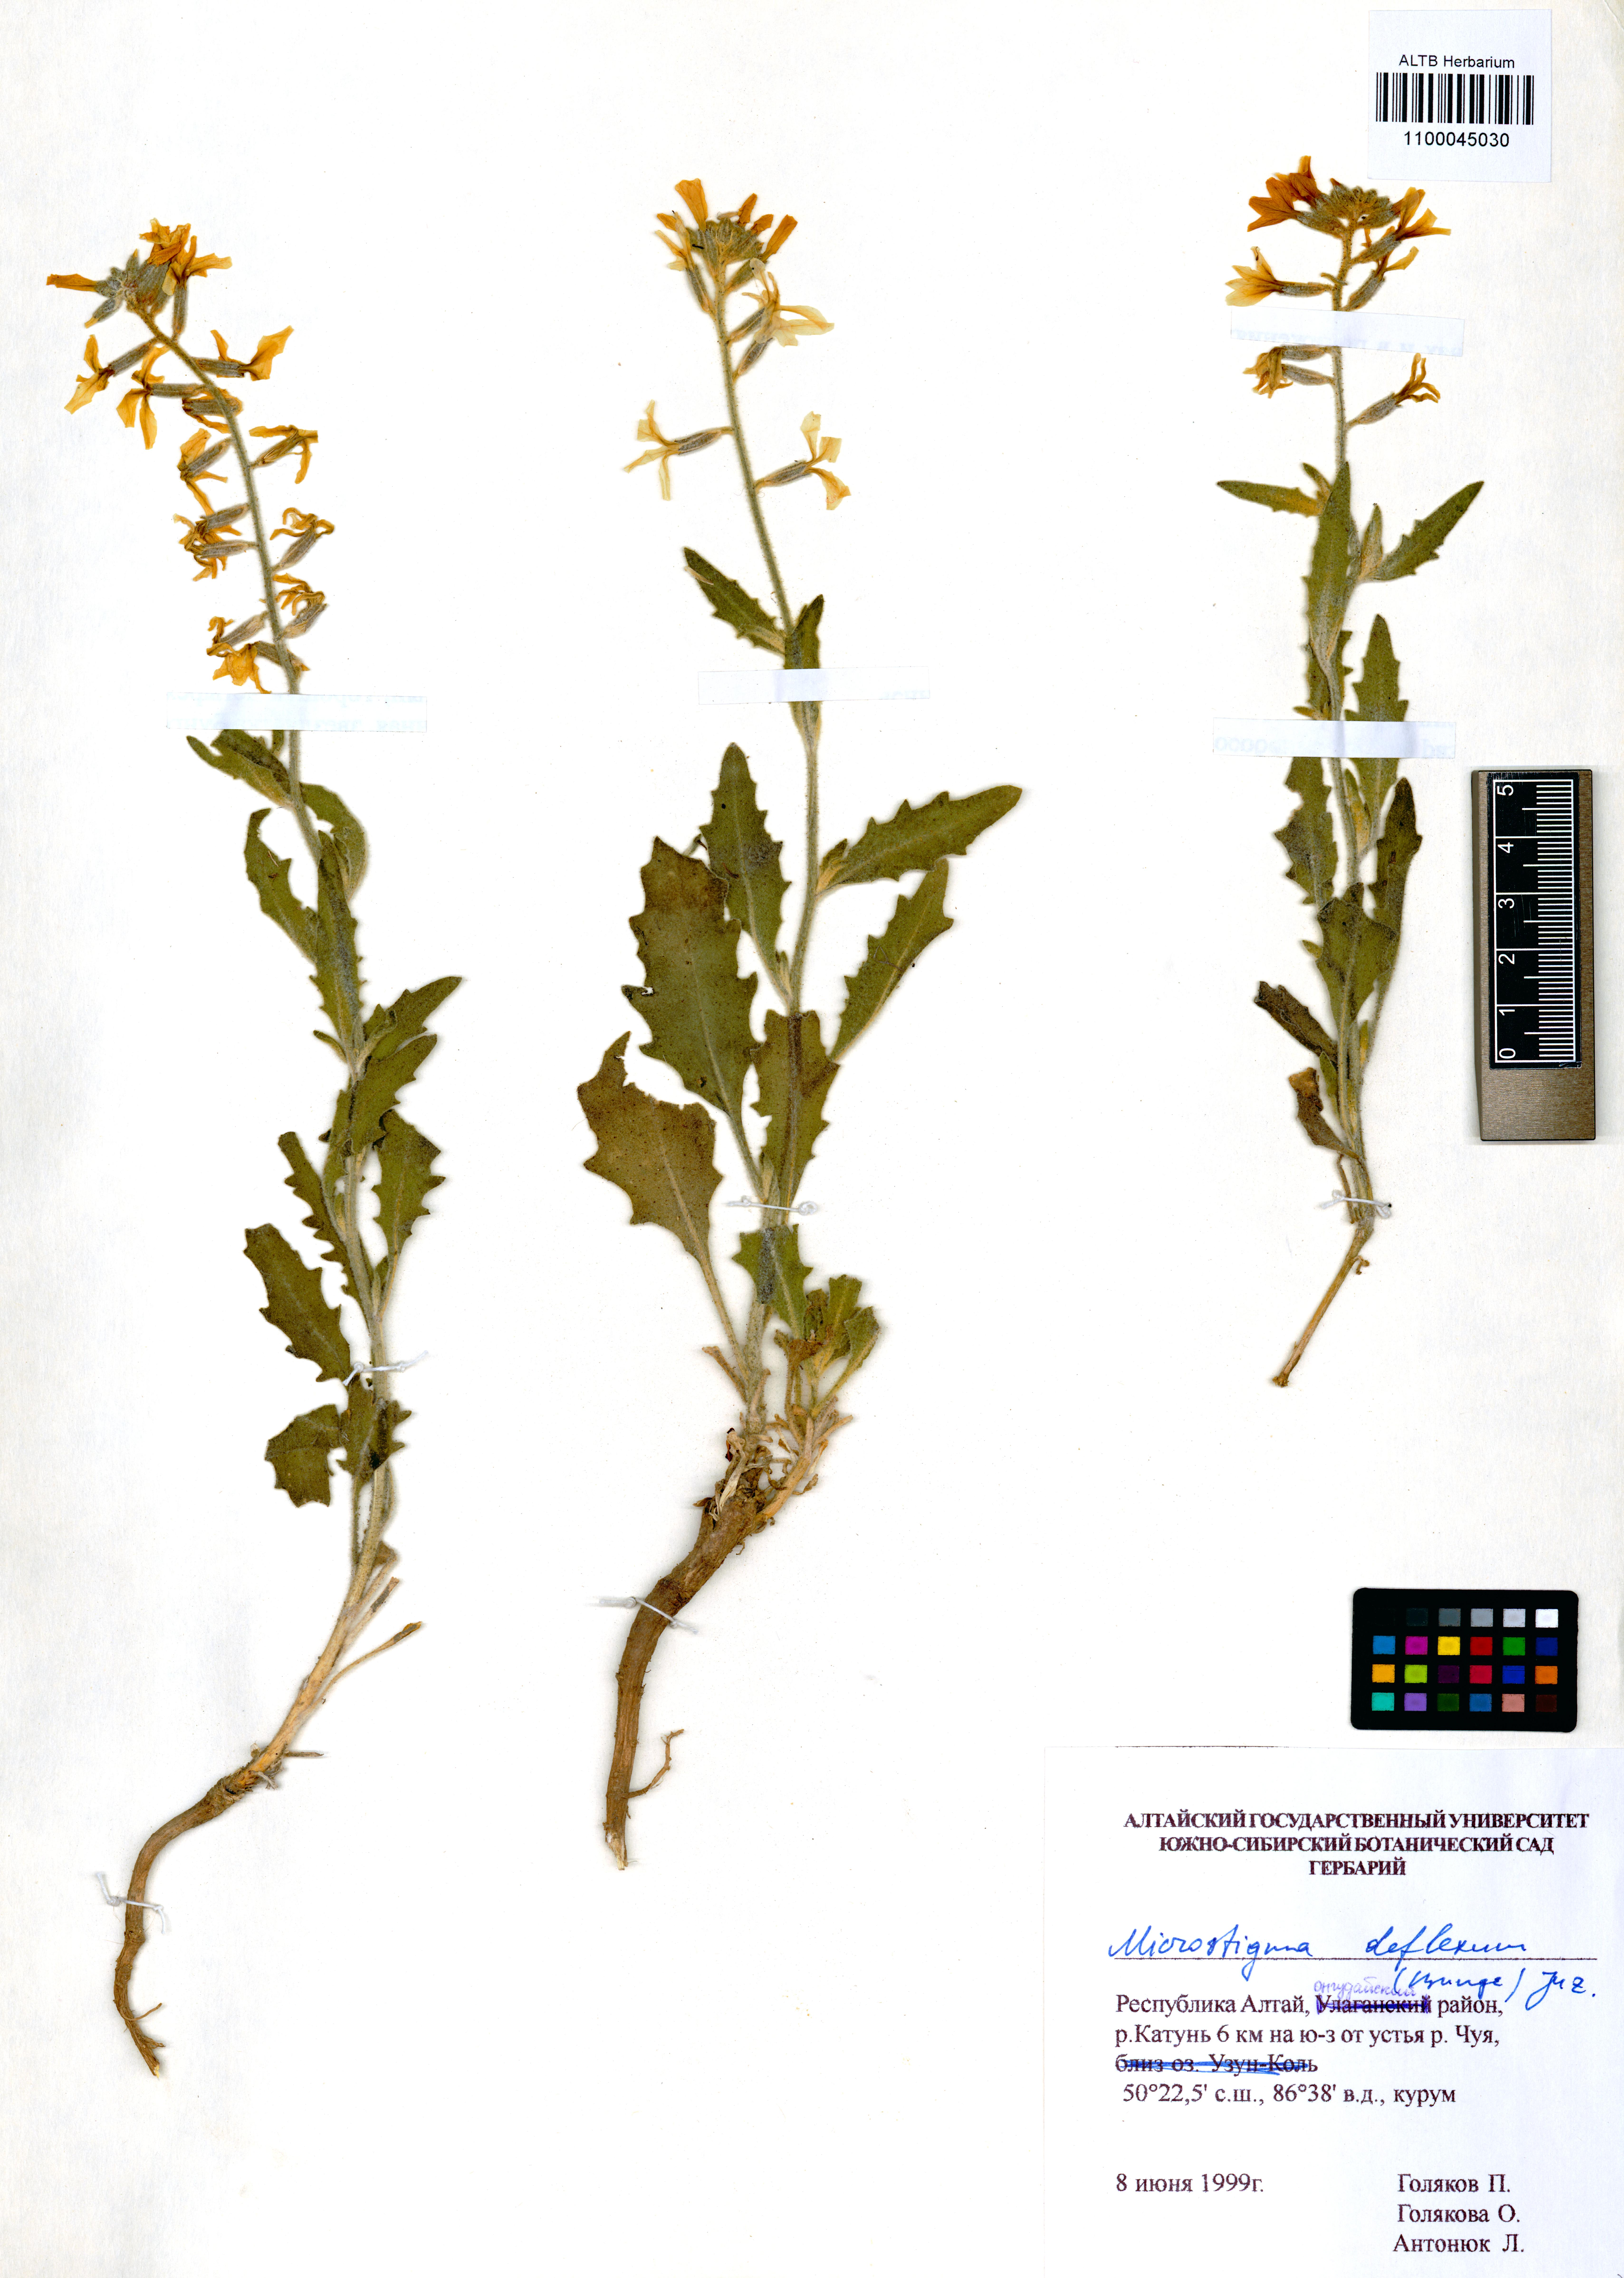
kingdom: Plantae
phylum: Tracheophyta
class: Magnoliopsida
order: Brassicales
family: Brassicaceae
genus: Microstigma
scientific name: Microstigma deflexum
